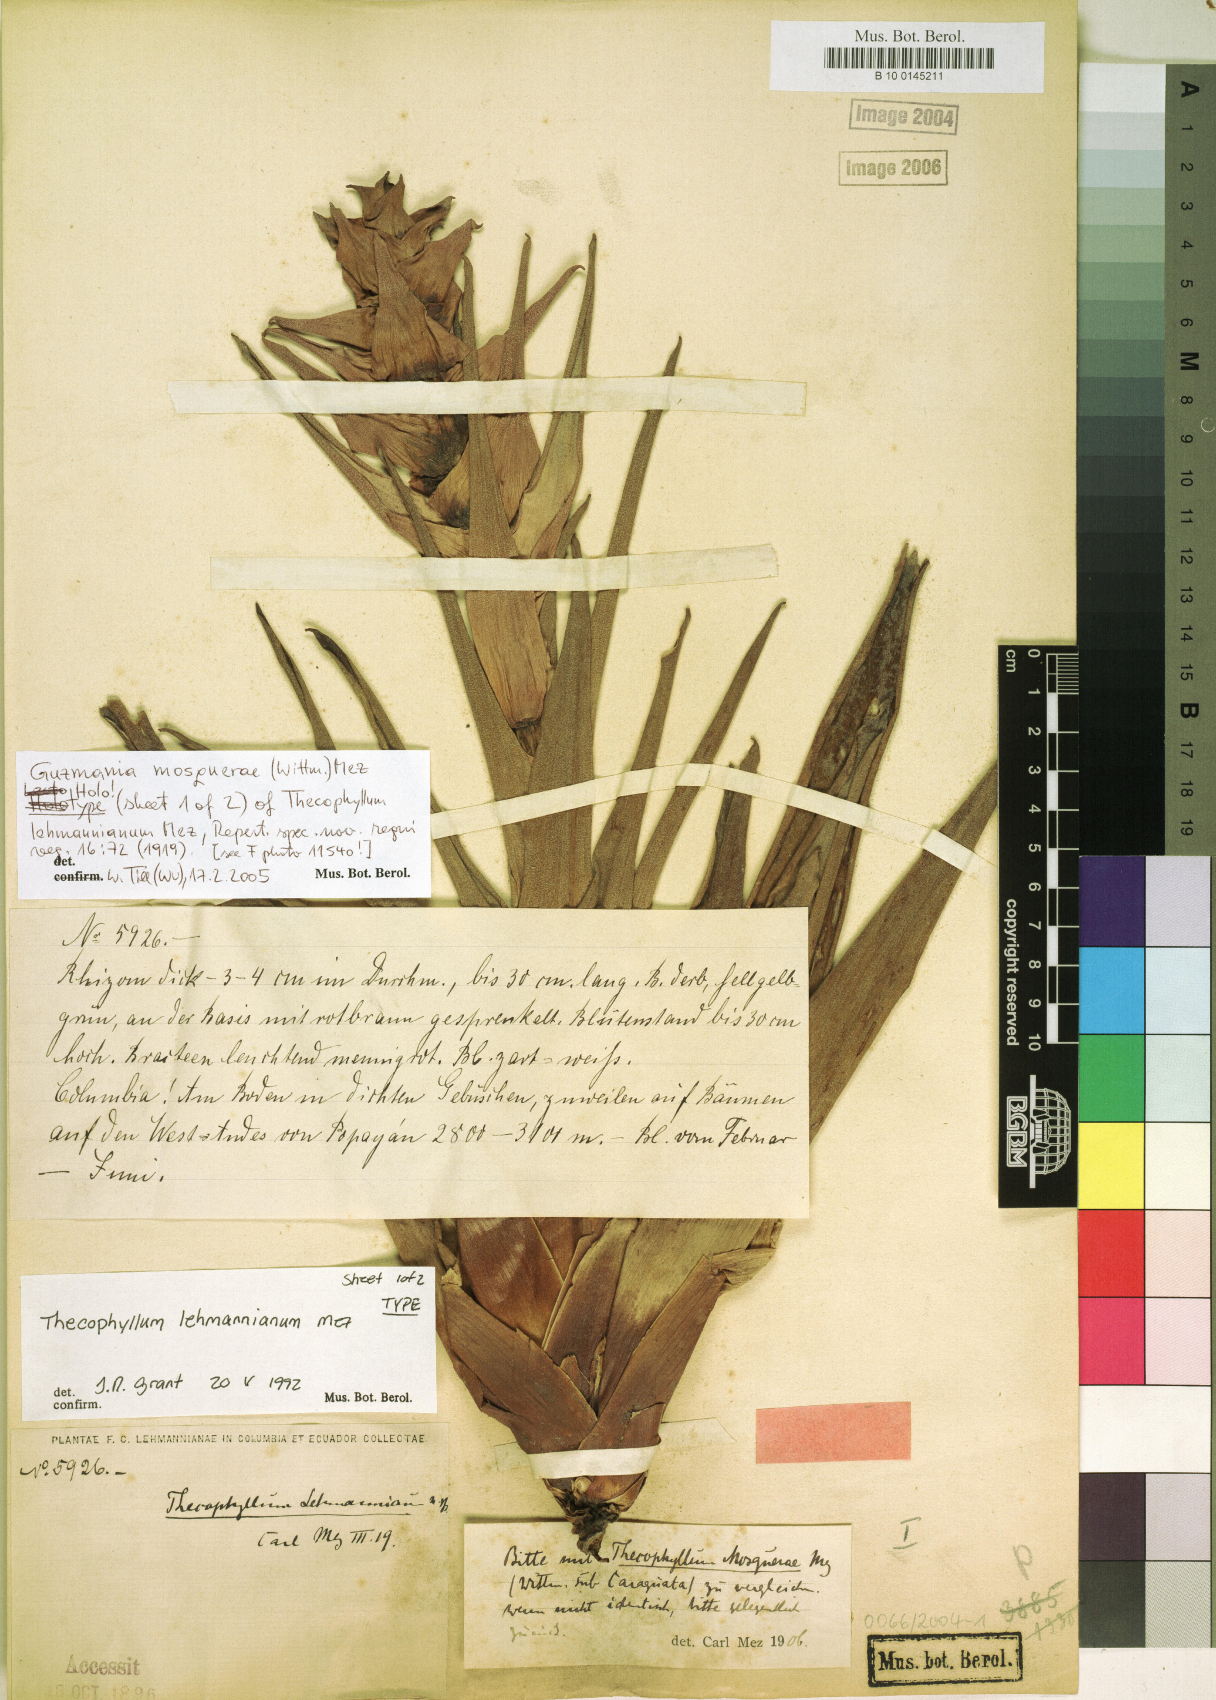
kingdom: Plantae
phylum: Tracheophyta
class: Liliopsida
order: Poales
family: Bromeliaceae
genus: Guzmania
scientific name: Guzmania mosquerae
